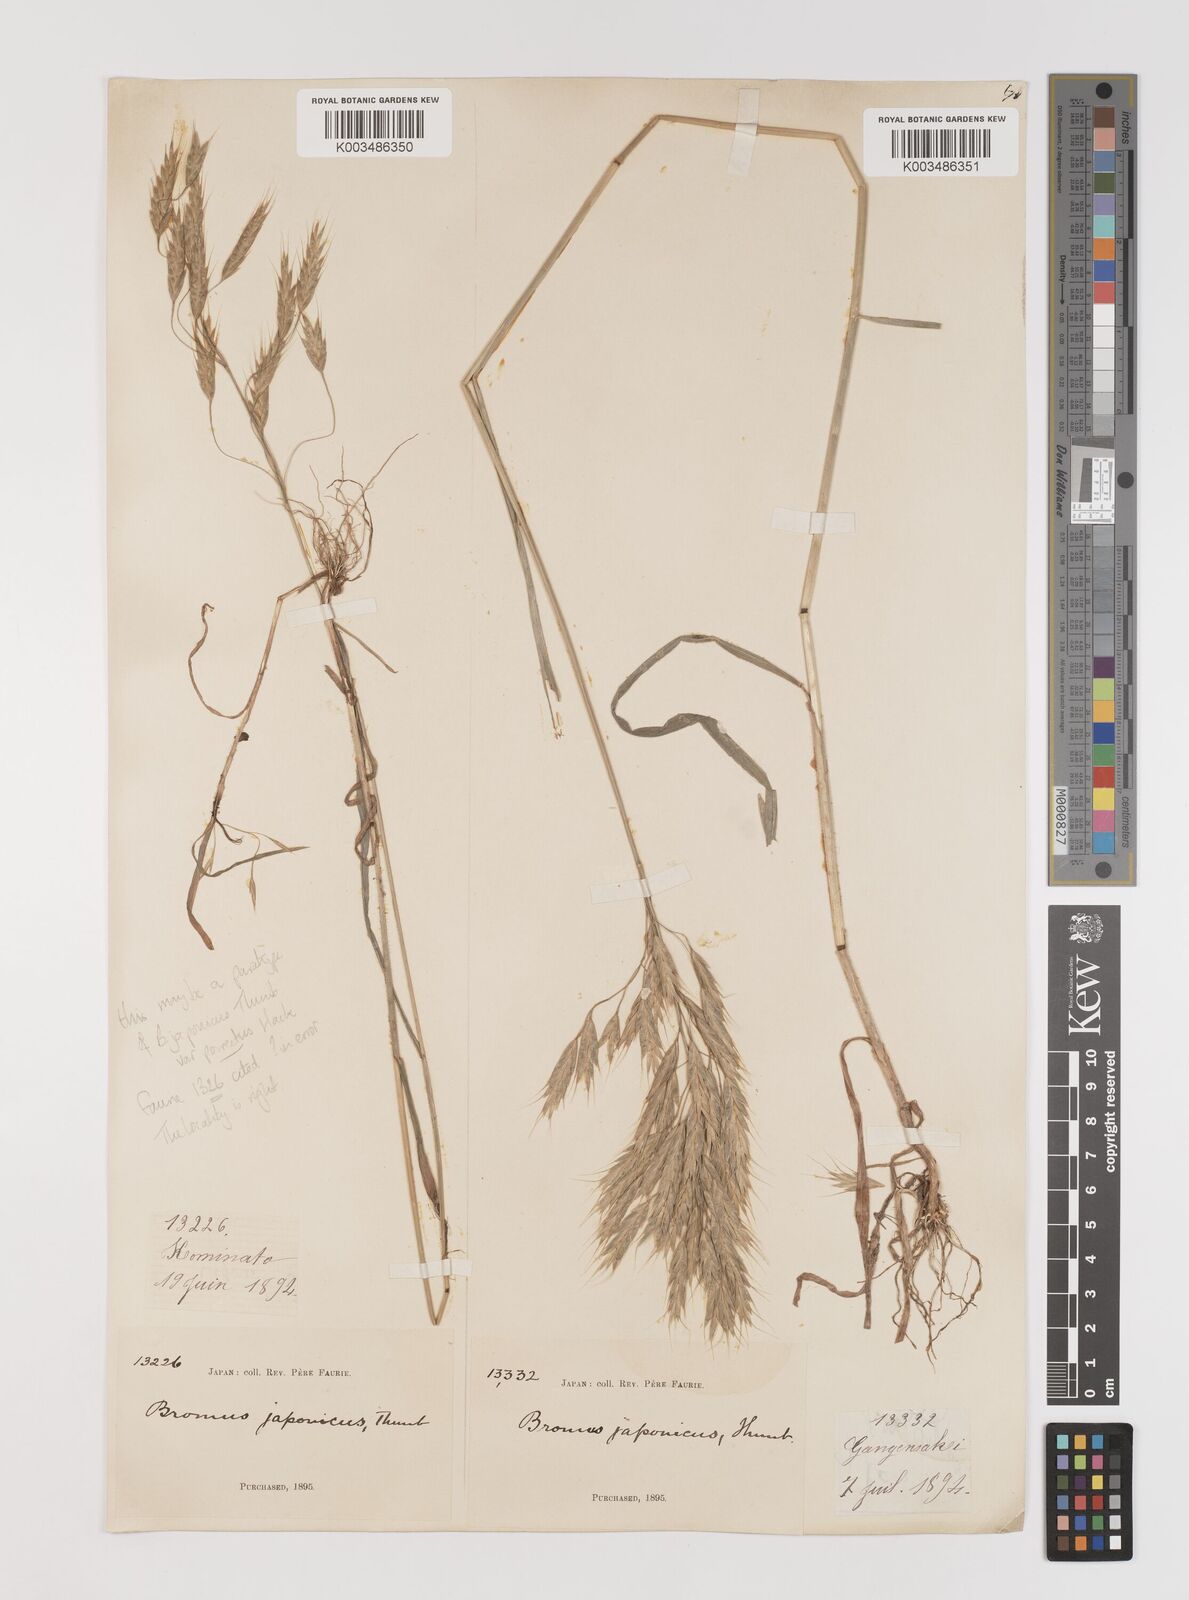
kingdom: Plantae
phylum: Tracheophyta
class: Liliopsida
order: Poales
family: Poaceae
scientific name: Poaceae
